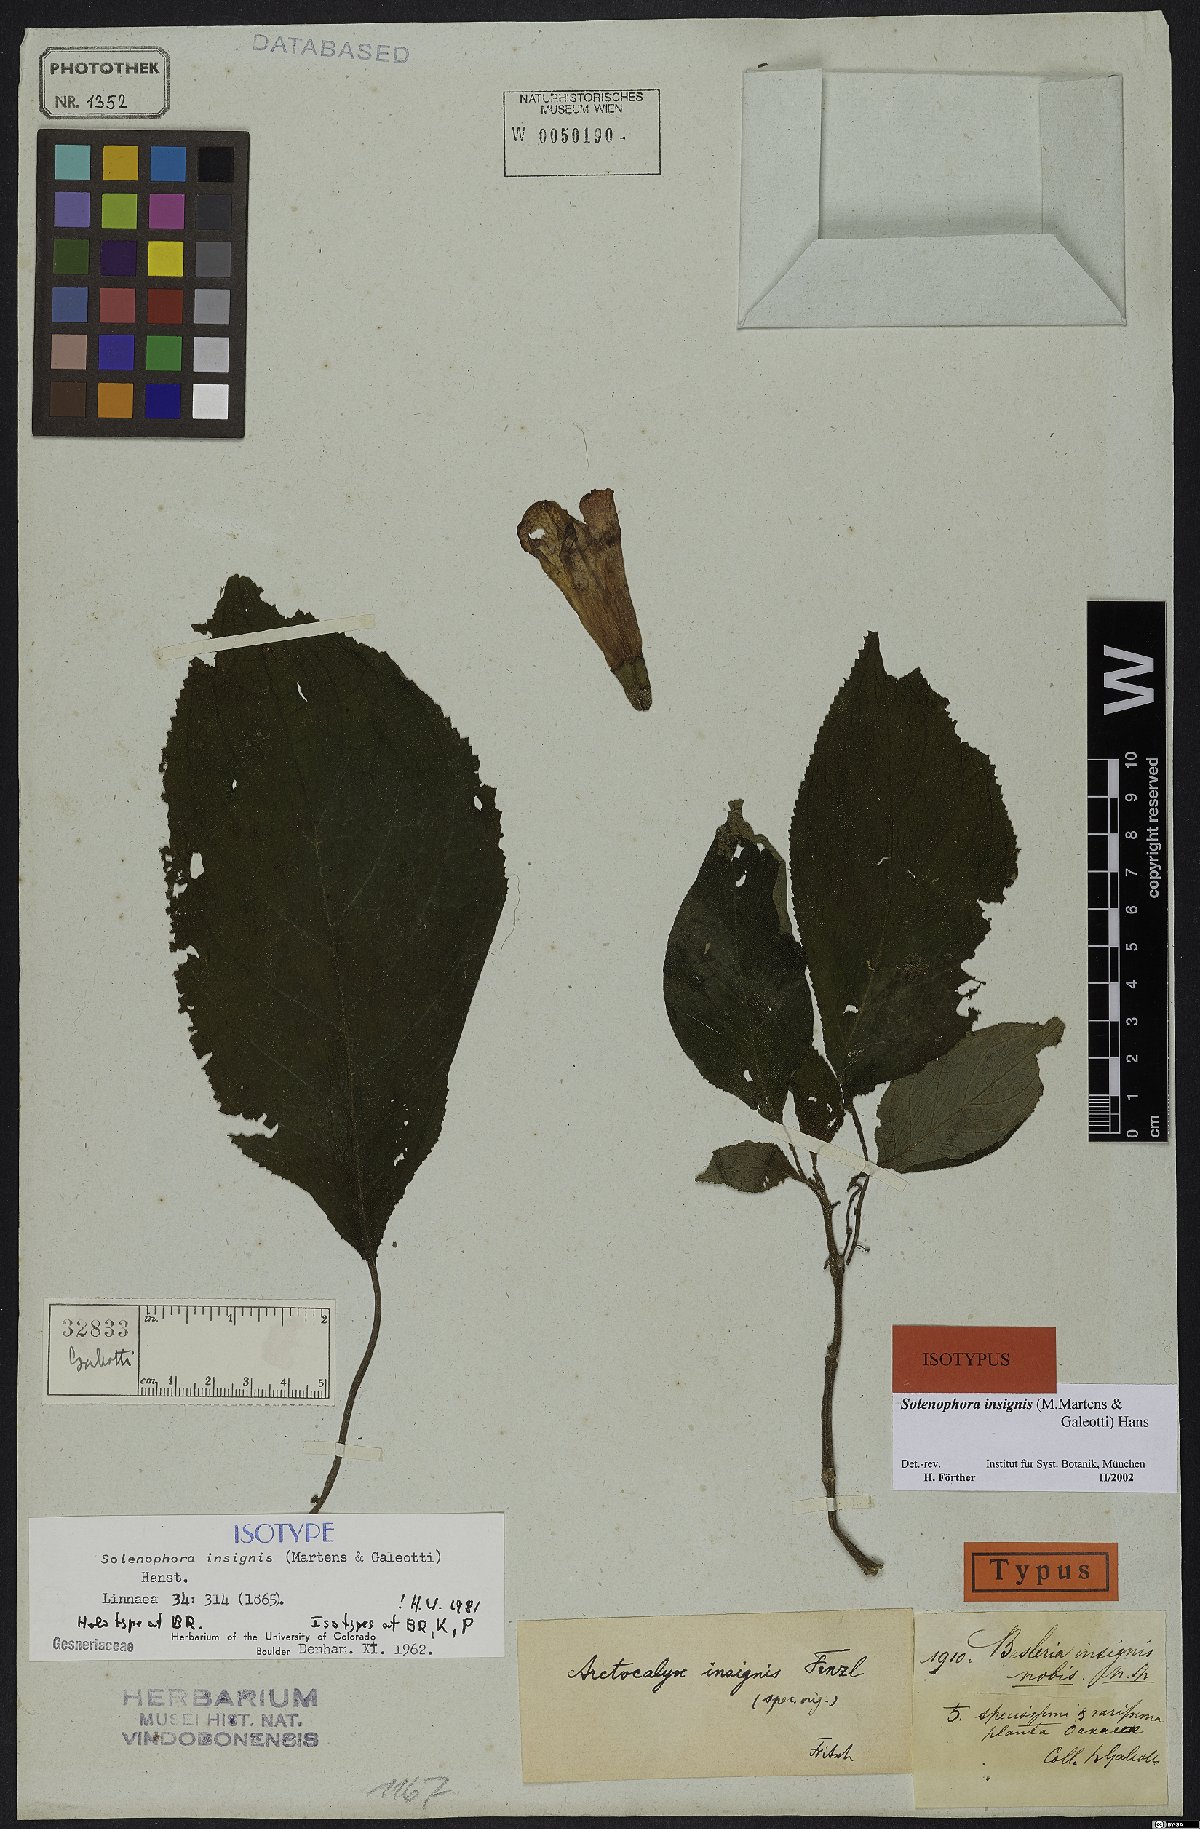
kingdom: Plantae
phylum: Tracheophyta
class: Magnoliopsida
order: Lamiales
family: Gesneriaceae
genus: Solenophora
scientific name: Solenophora insignis
